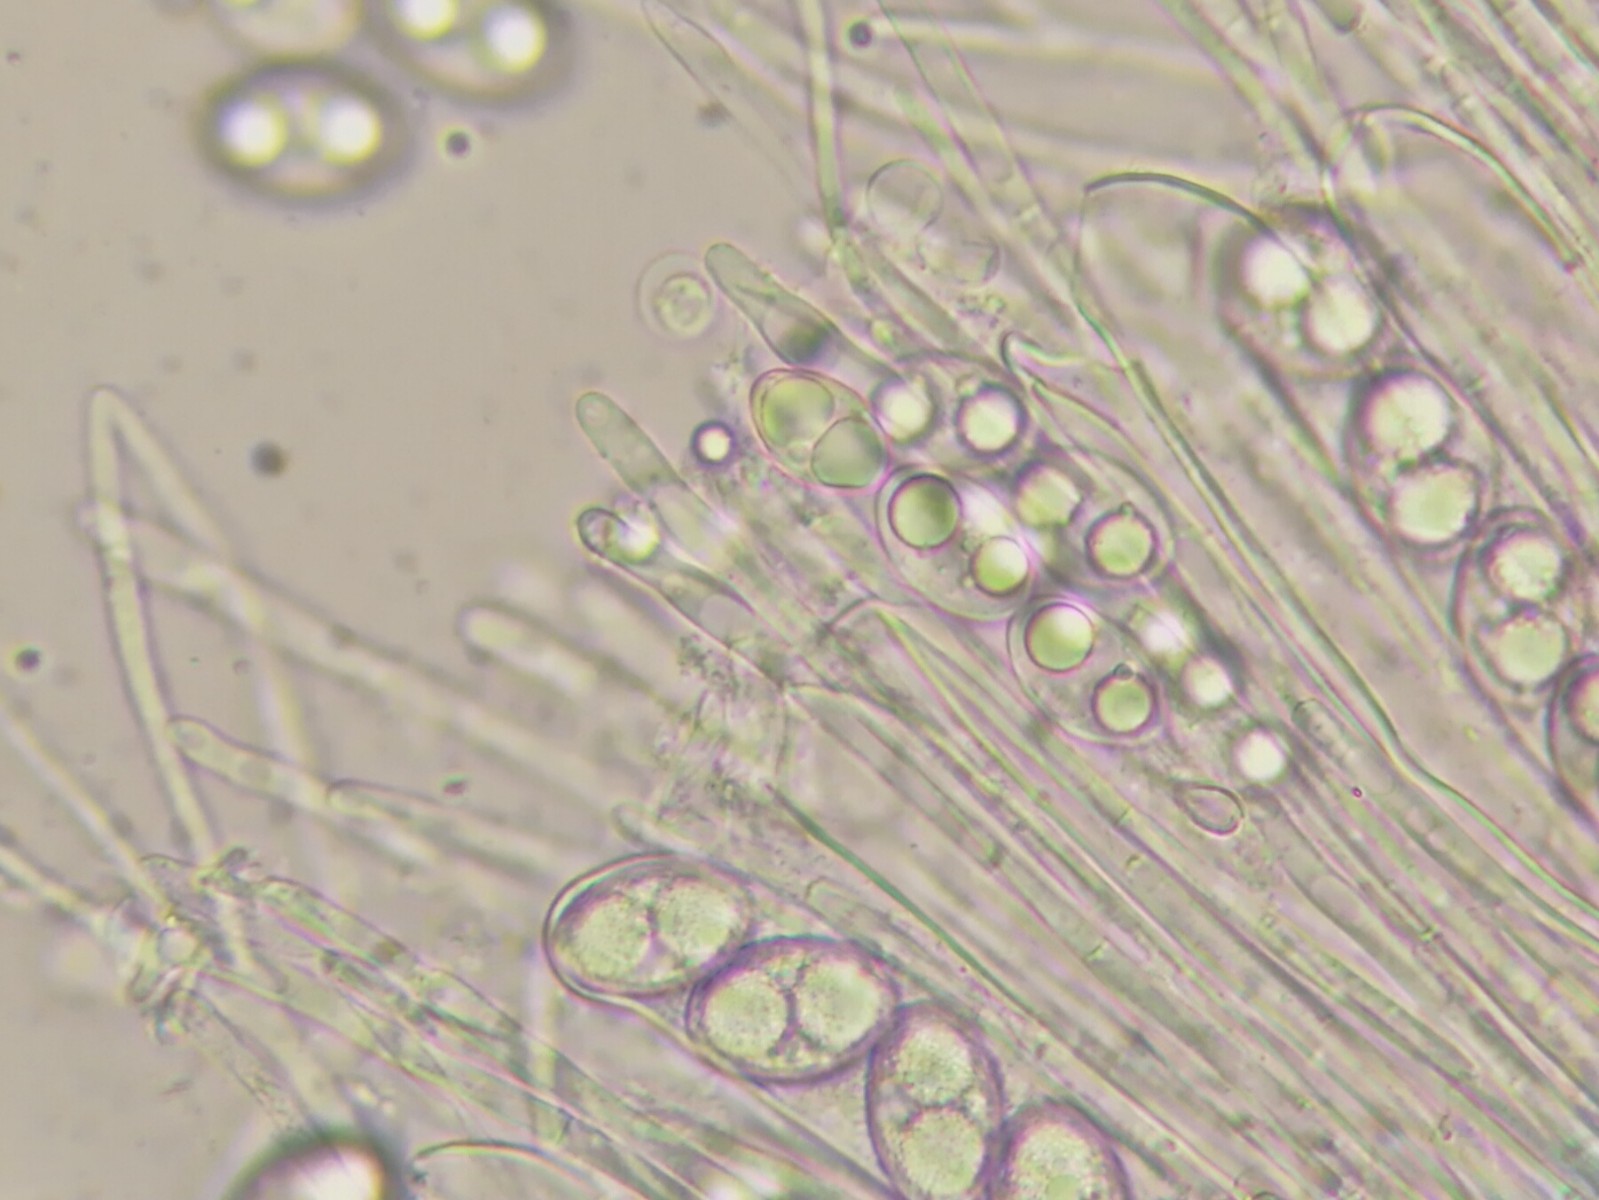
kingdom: Fungi
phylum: Ascomycota
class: Pezizomycetes
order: Pezizales
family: Tarzettaceae
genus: Tarzetta
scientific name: Tarzetta spurcata
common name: stor pokalbæger
